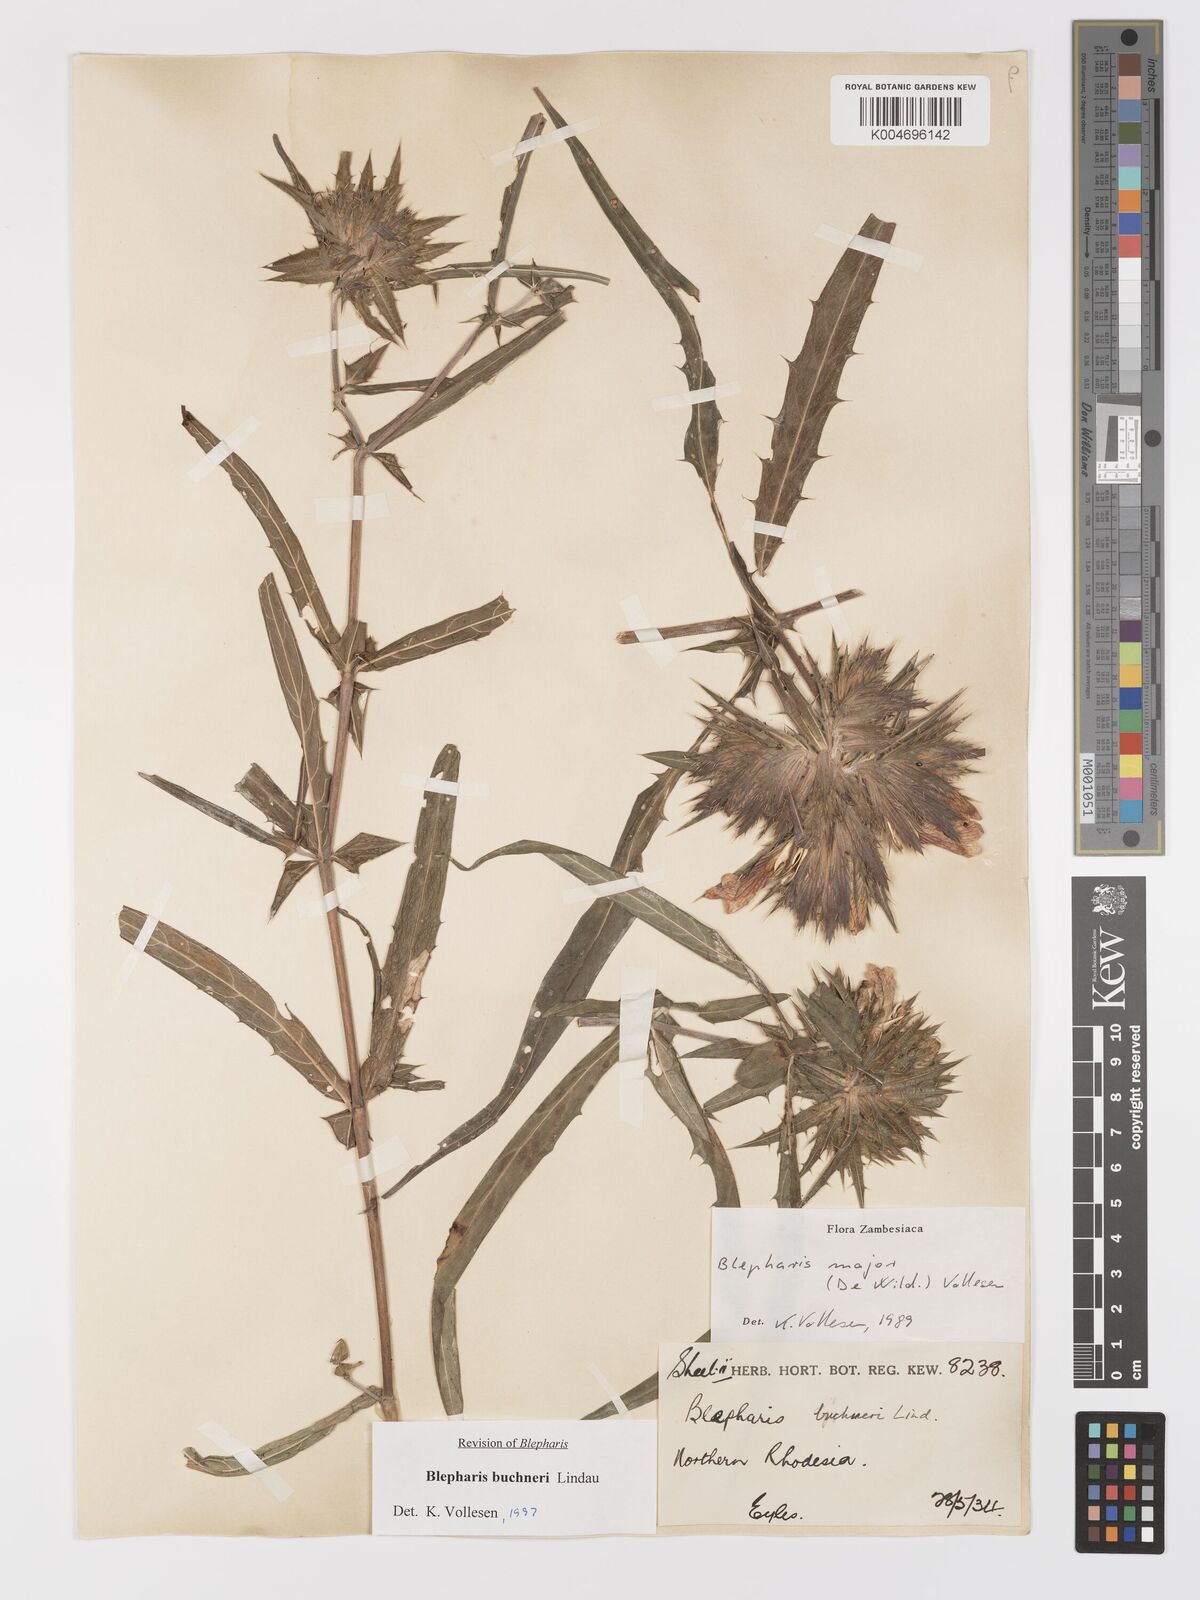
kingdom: Plantae
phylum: Tracheophyta
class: Magnoliopsida
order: Lamiales
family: Acanthaceae
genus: Blepharis
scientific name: Blepharis buchneri
